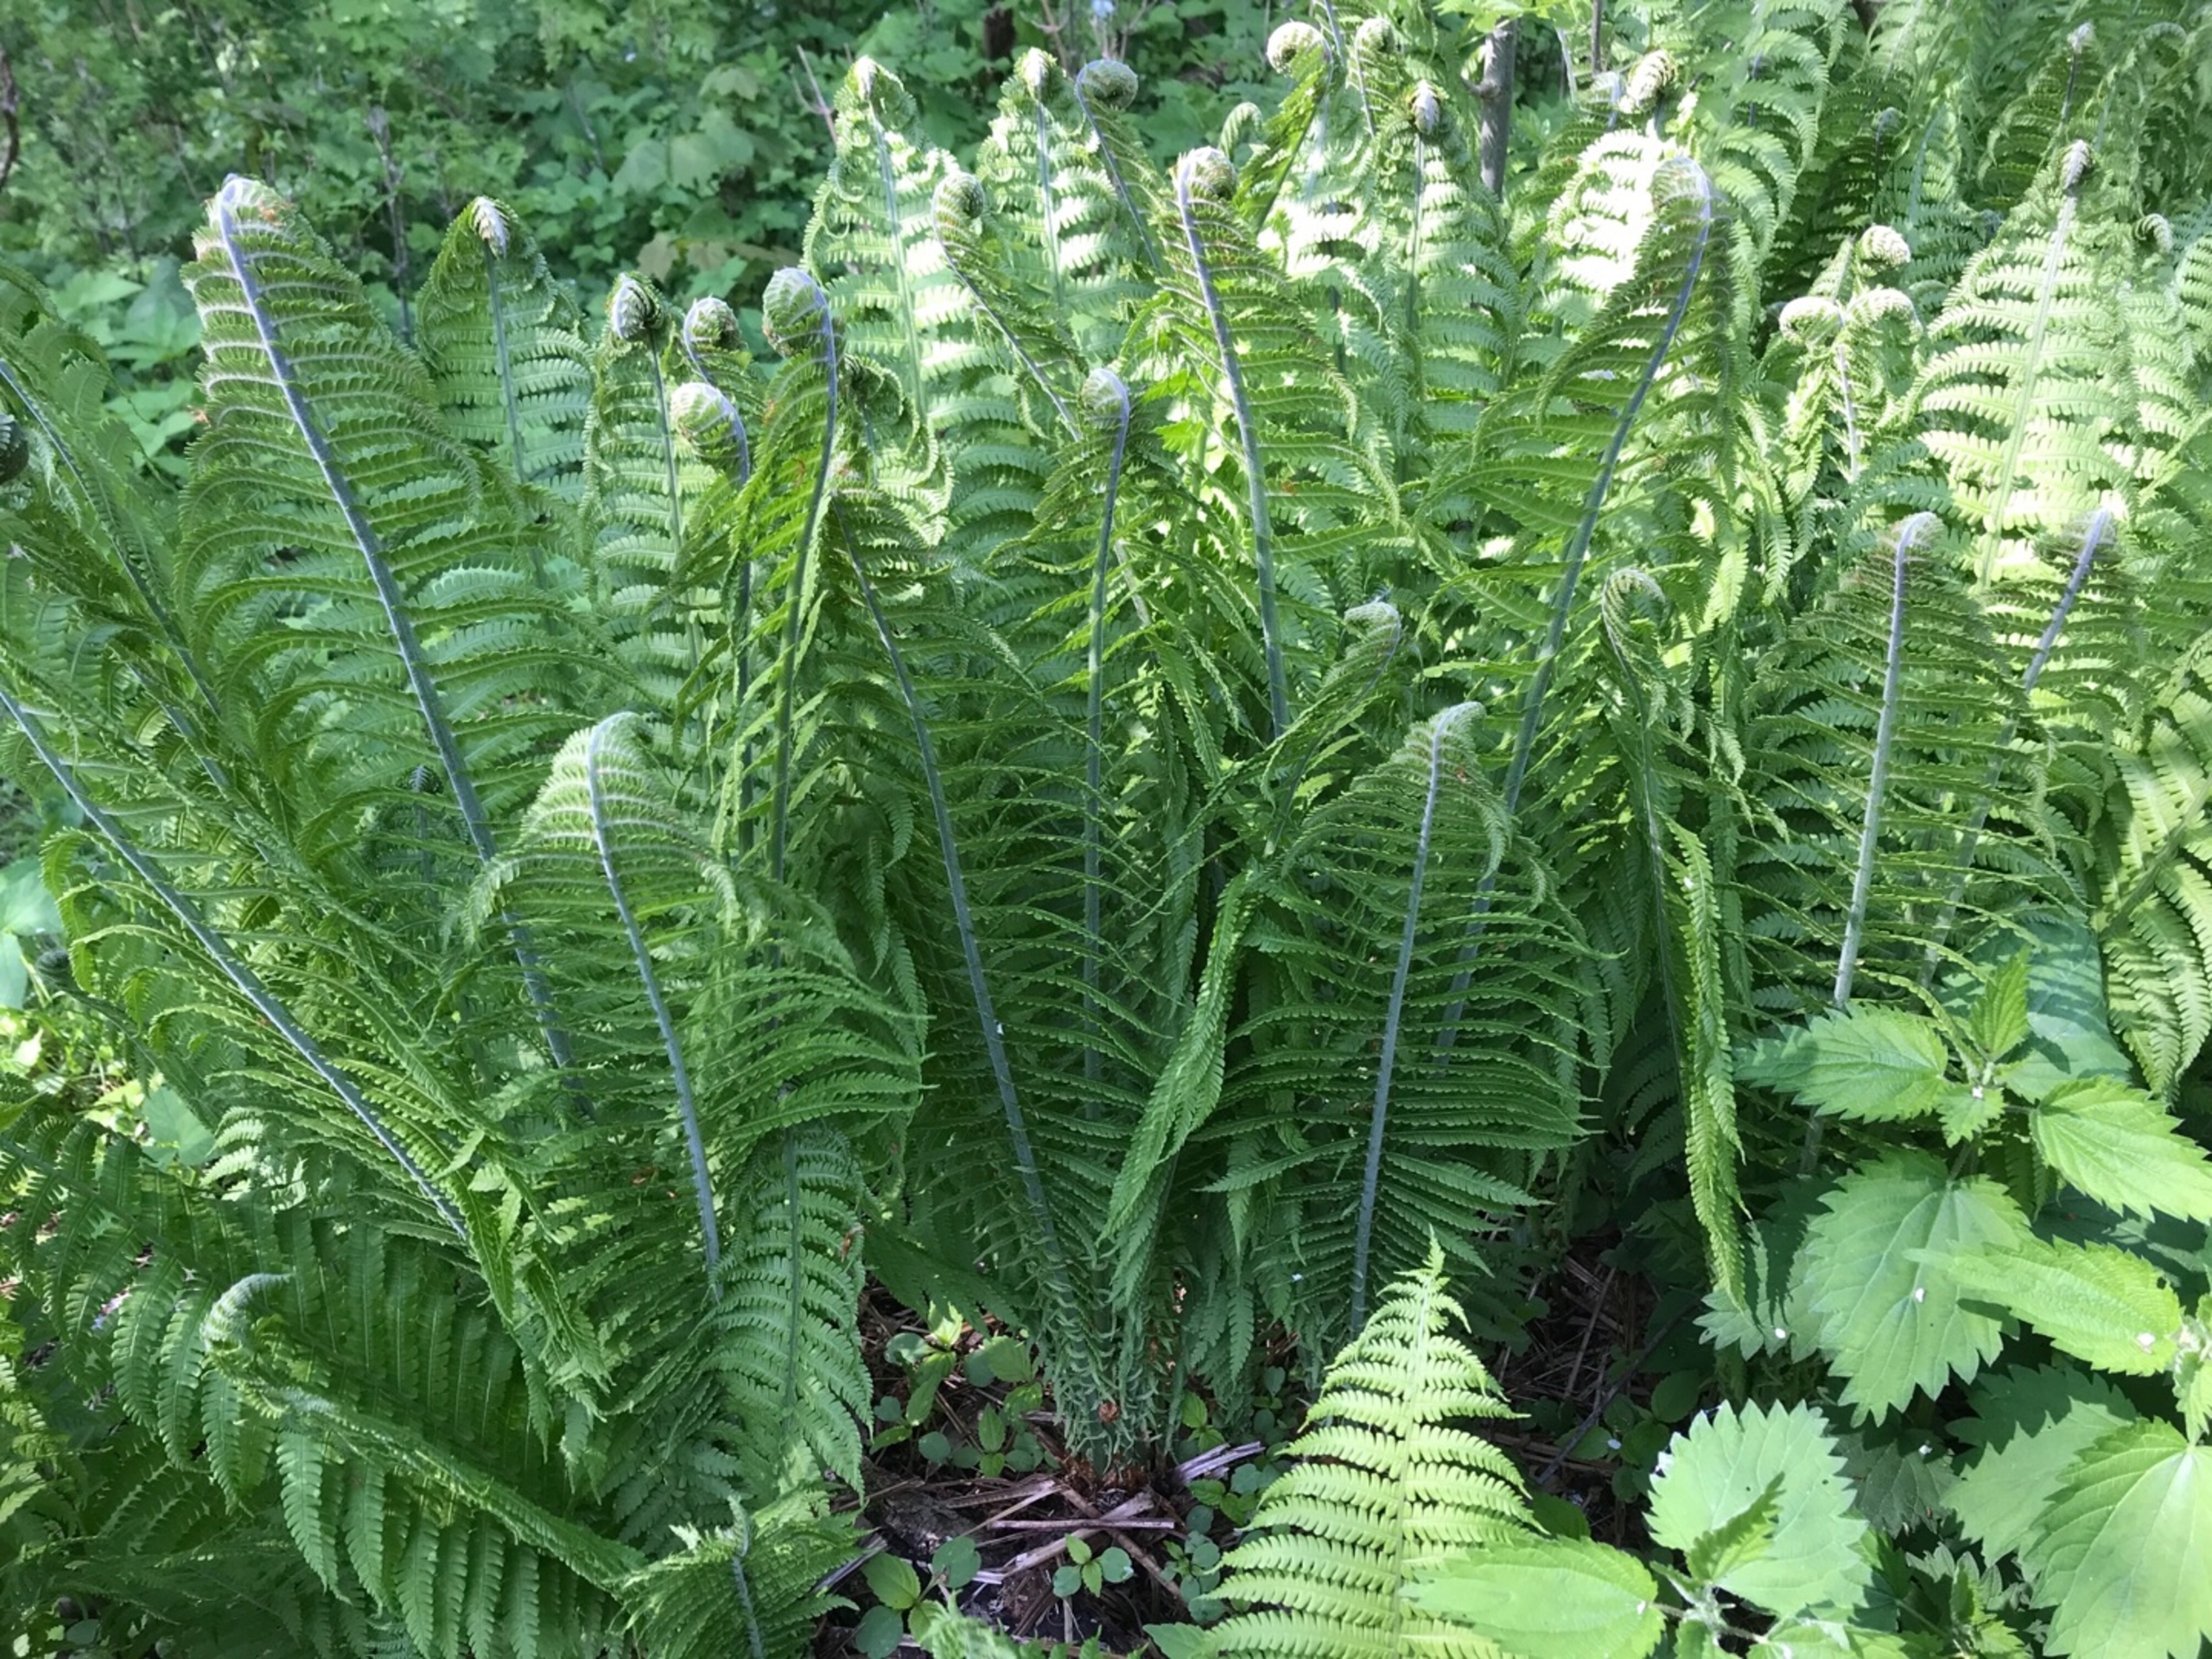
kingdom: Plantae
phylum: Tracheophyta
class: Polypodiopsida
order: Polypodiales
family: Onocleaceae
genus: Matteuccia
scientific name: Matteuccia struthiopteris
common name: Strudsvinge
